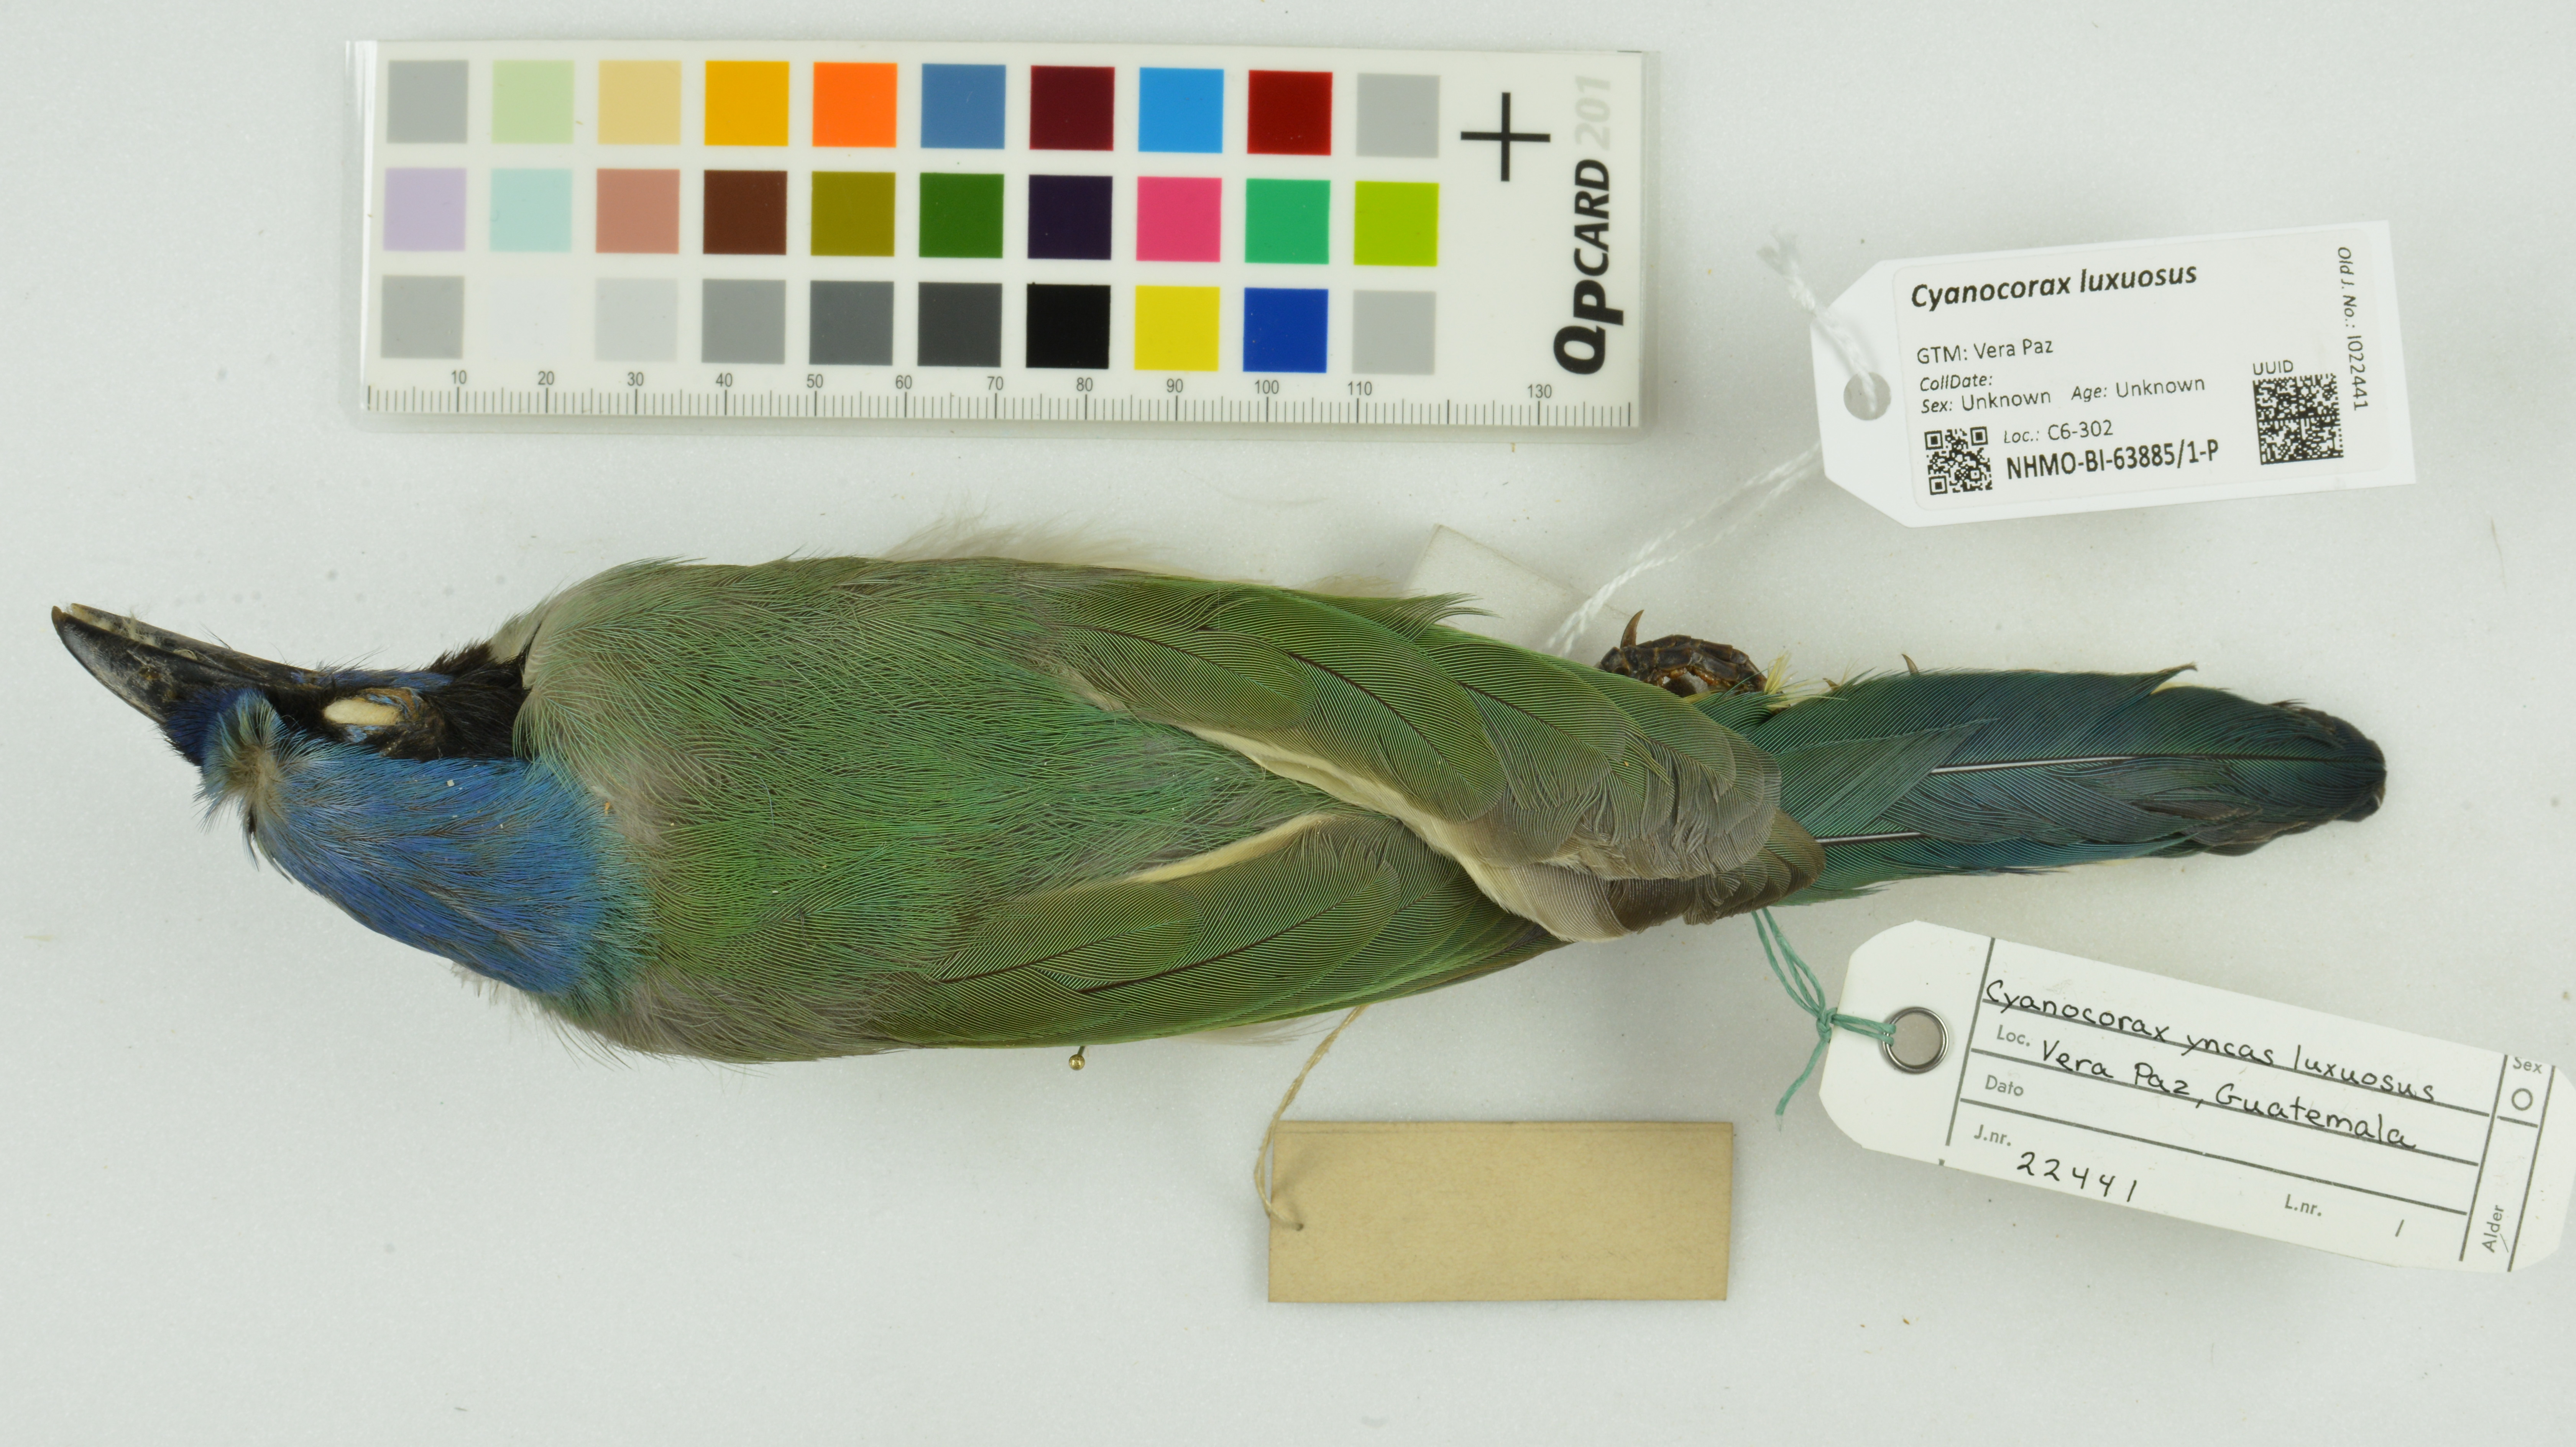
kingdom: Animalia
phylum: Chordata
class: Aves
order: Passeriformes
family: Corvidae
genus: Cyanocorax
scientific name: Cyanocorax luxuosus
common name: Green jay
